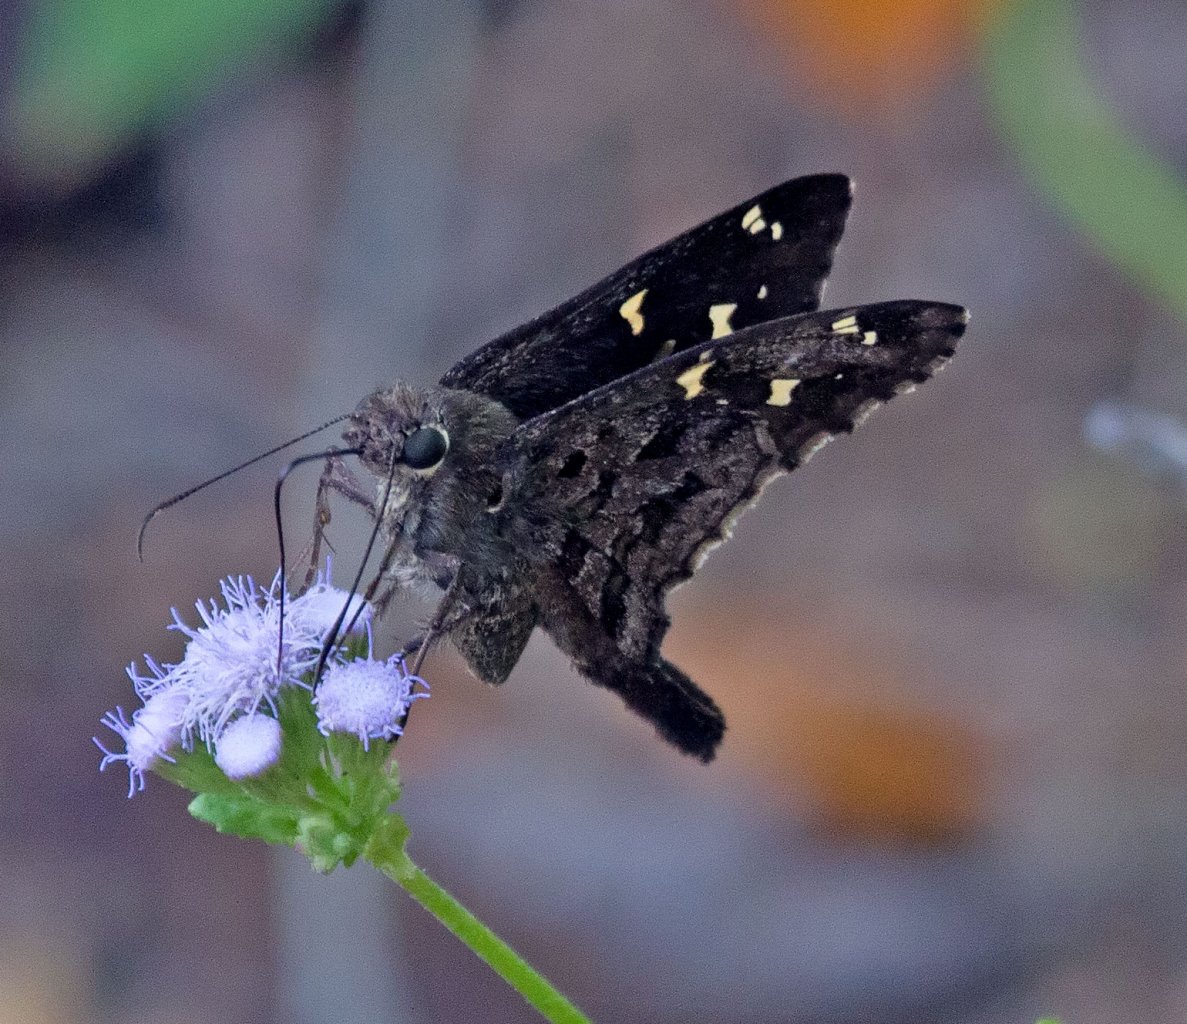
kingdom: Animalia
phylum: Arthropoda
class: Insecta
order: Lepidoptera
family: Hesperiidae
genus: Urbanus
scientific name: Urbanus dorantes
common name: Dorantes Longtail
